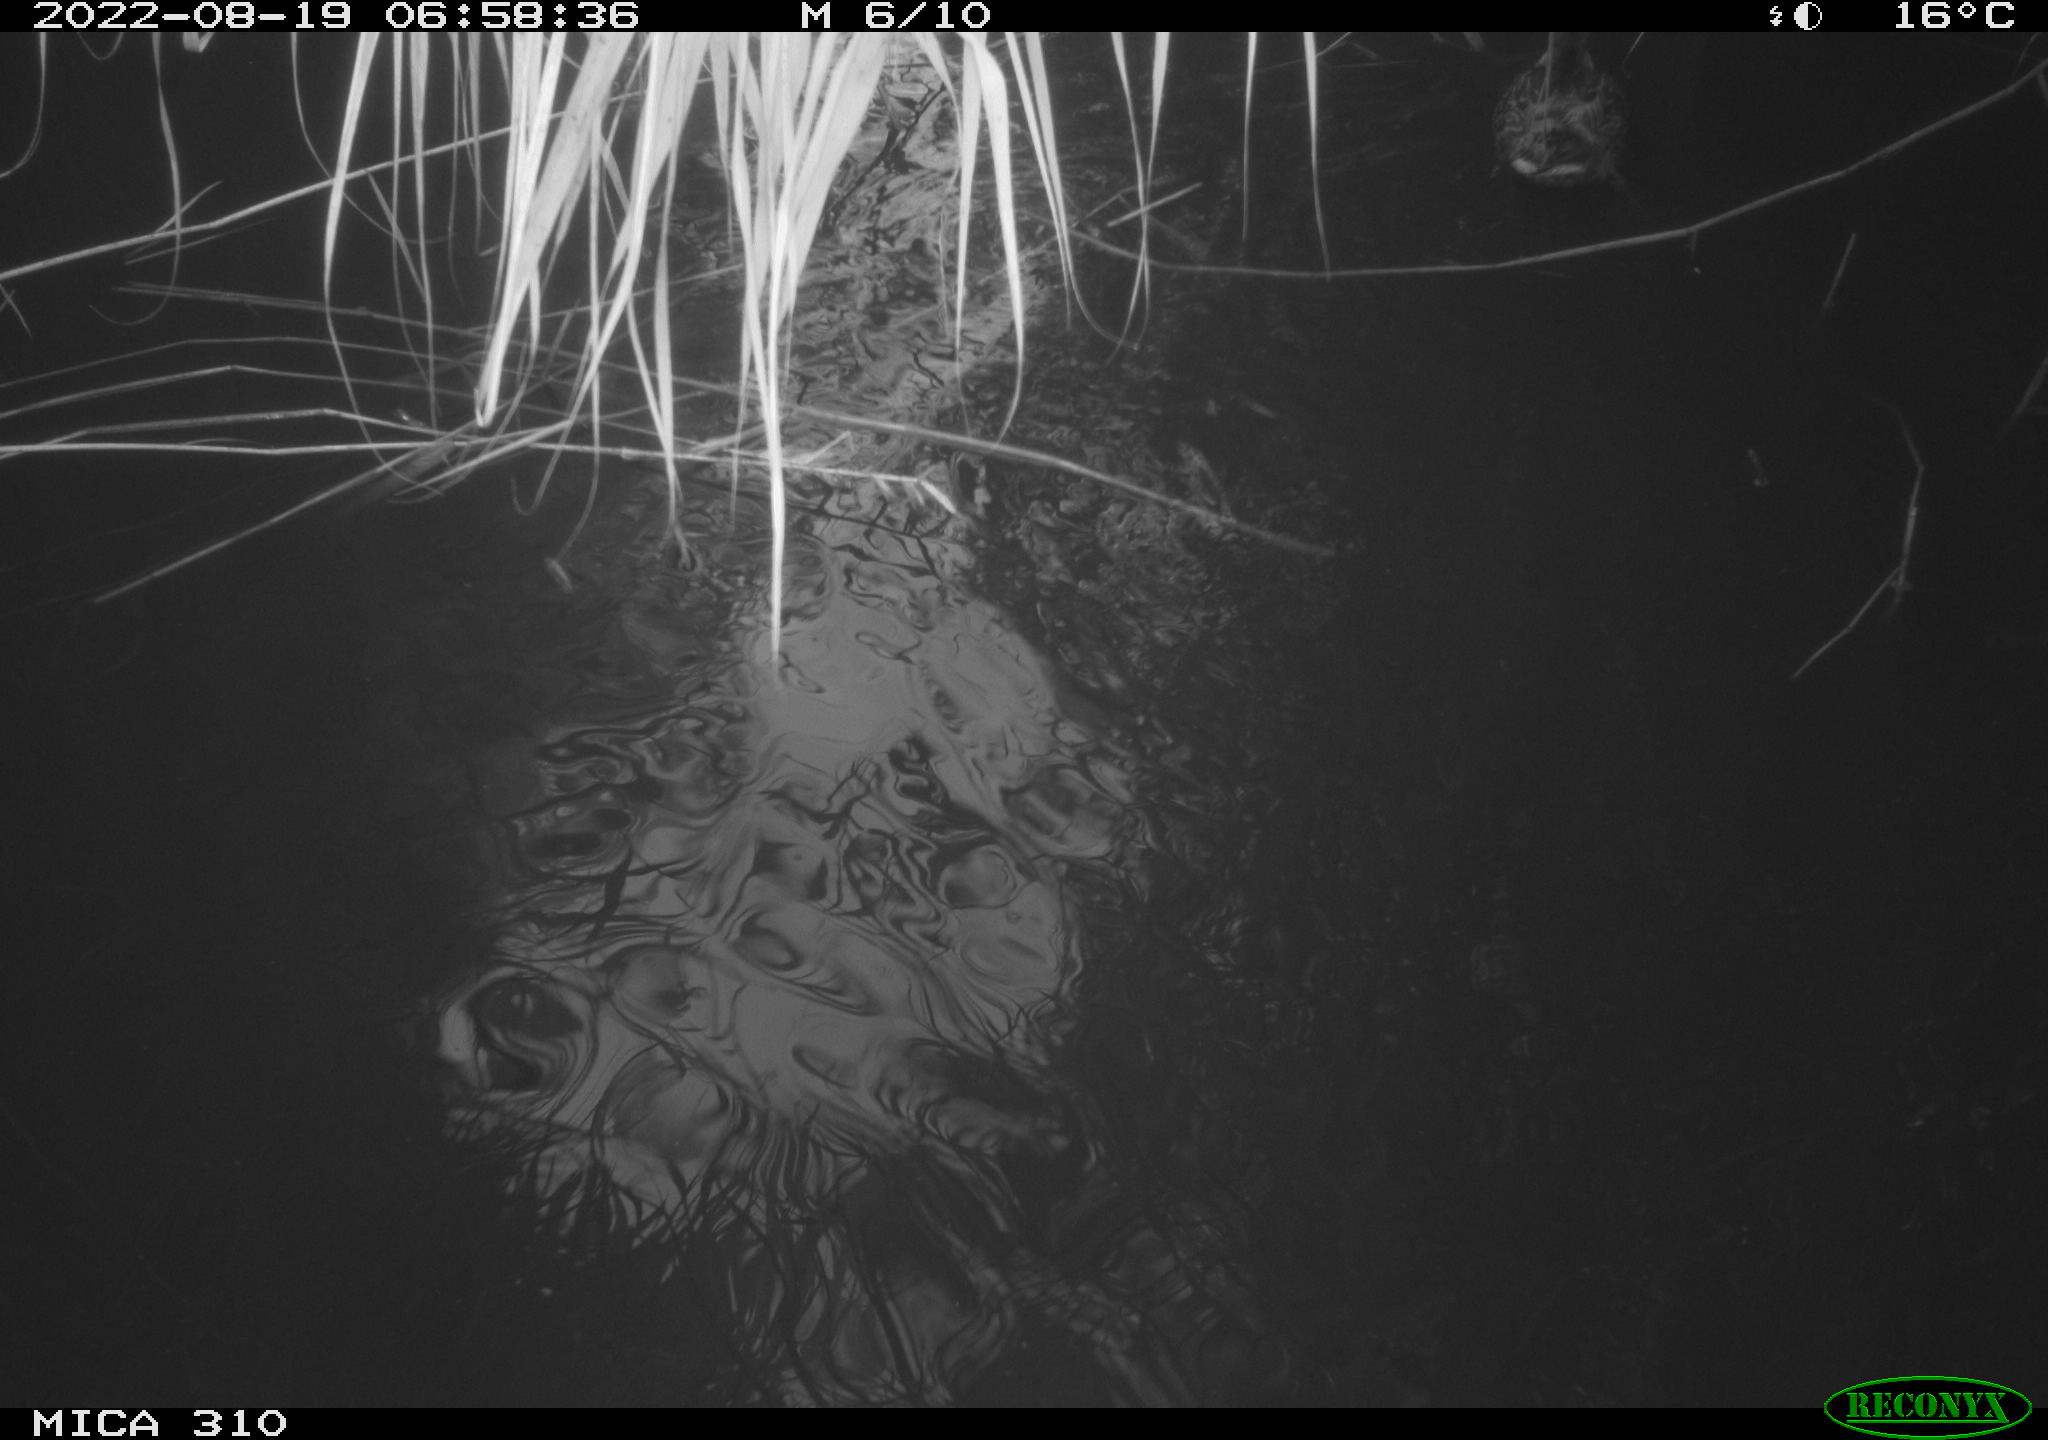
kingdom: Animalia
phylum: Chordata
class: Aves
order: Gruiformes
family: Rallidae
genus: Fulica
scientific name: Fulica atra
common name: Eurasian coot
